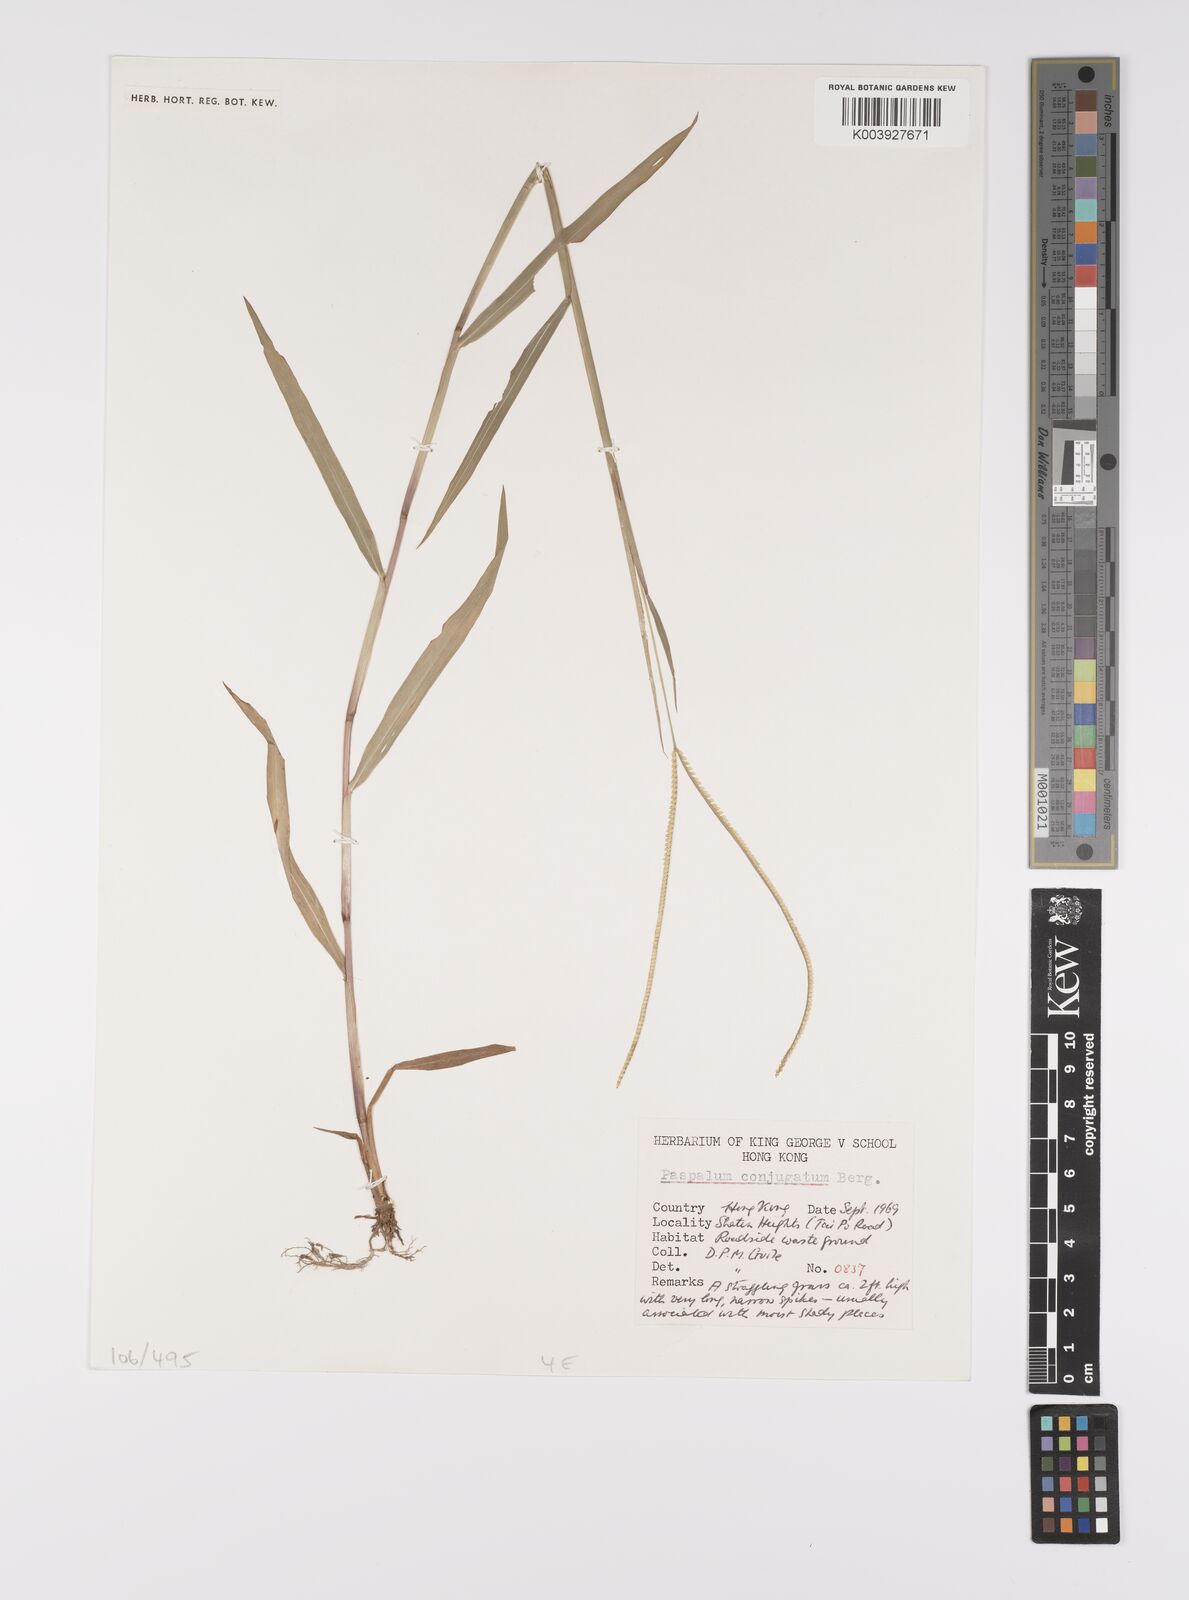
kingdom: Plantae
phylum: Tracheophyta
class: Liliopsida
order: Poales
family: Poaceae
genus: Paspalum
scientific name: Paspalum conjugatum
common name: Hilograss
